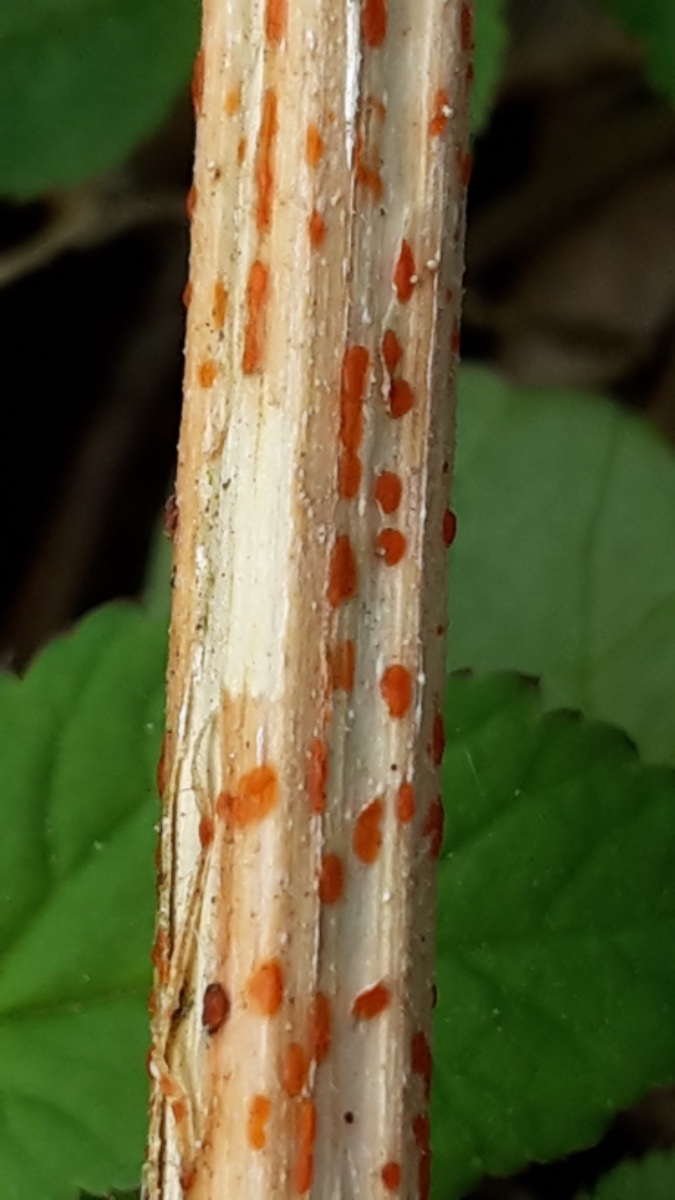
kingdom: Fungi
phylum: Ascomycota
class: Leotiomycetes
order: Helotiales
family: Calloriaceae
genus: Calloria
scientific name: Calloria urticae
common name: nælde-orangeskive
